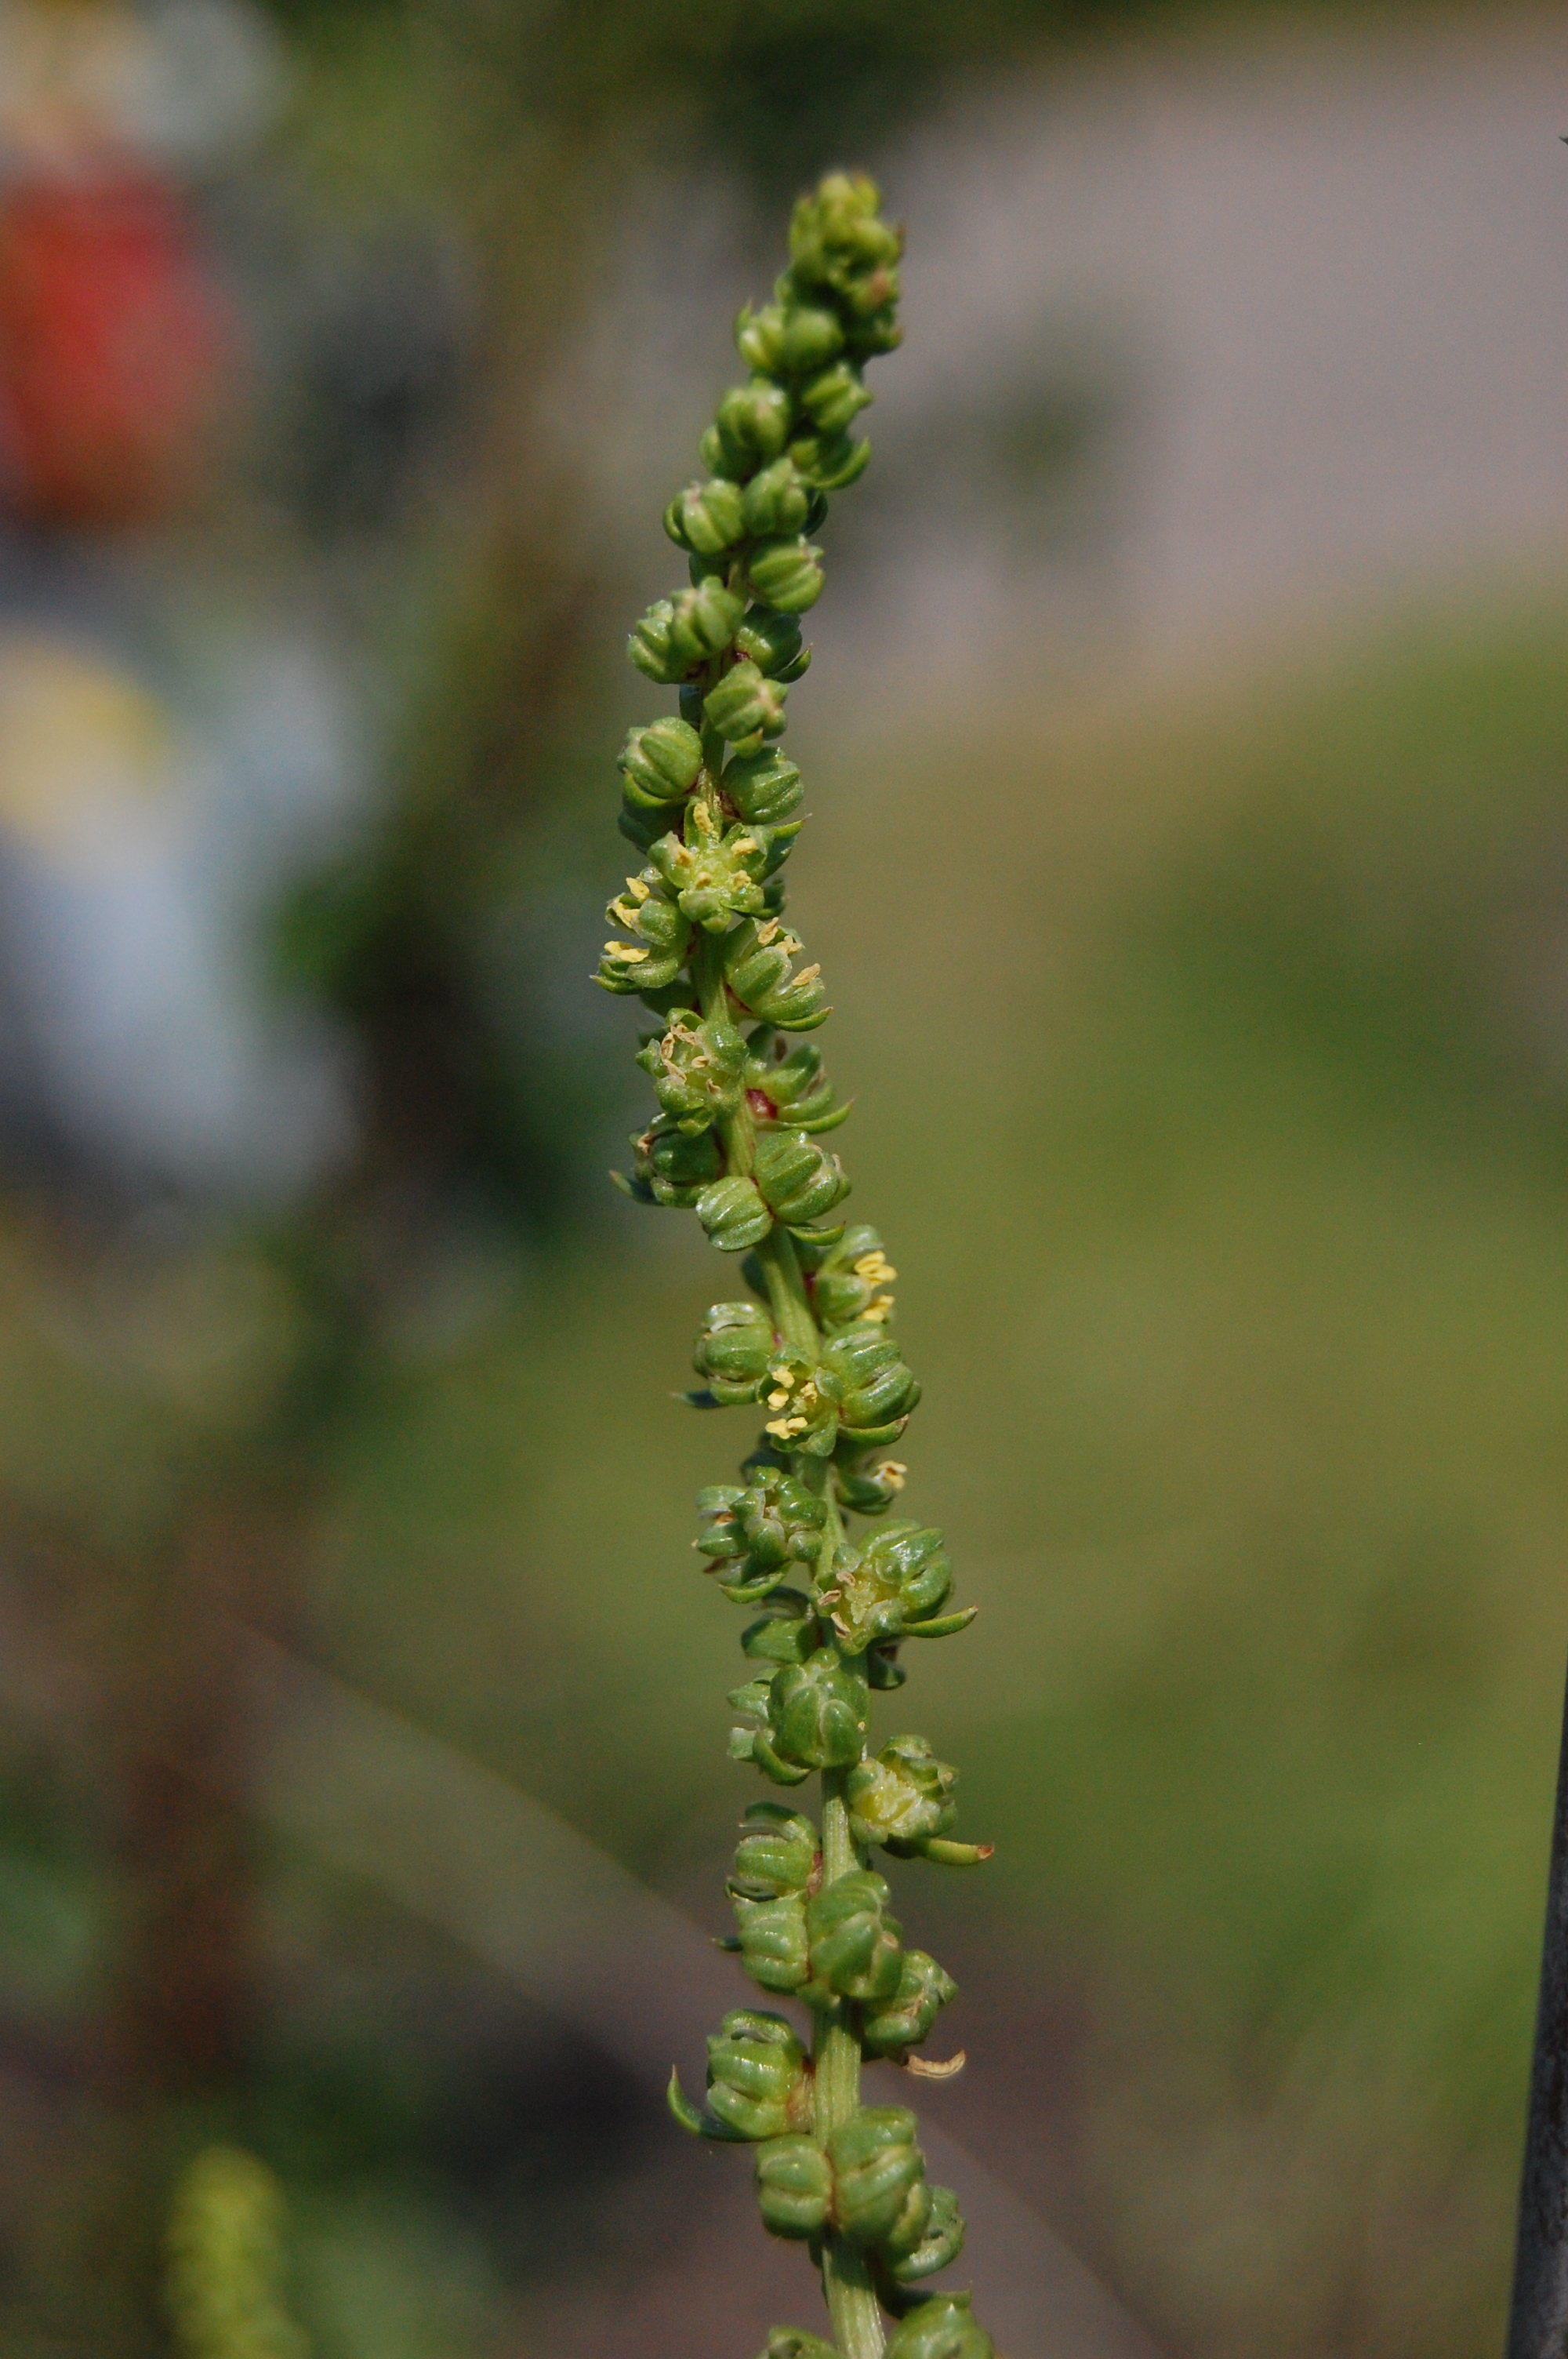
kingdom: Plantae
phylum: Tracheophyta
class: Magnoliopsida
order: Caryophyllales
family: Amaranthaceae
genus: Beta
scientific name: Beta vulgaris
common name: Beet
